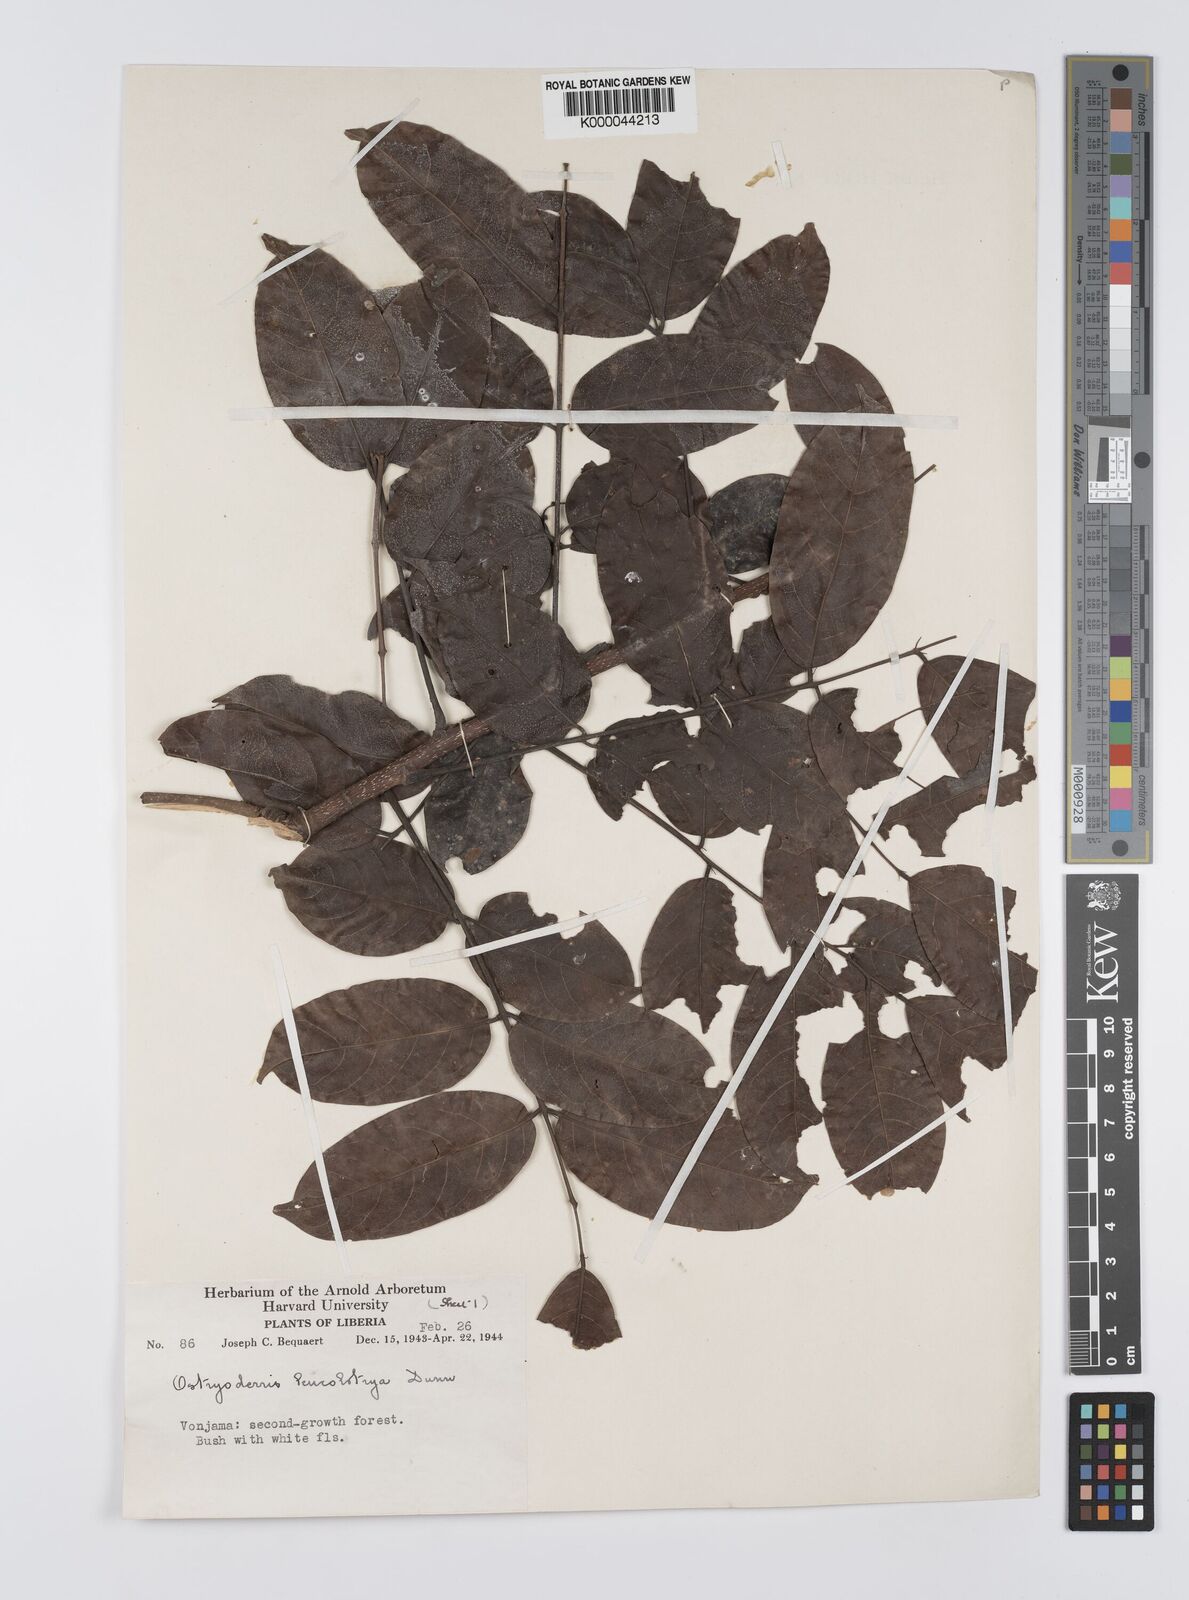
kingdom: Plantae
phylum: Tracheophyta
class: Magnoliopsida
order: Fabales
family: Fabaceae
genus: Aganope
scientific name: Aganope leucobotrya
